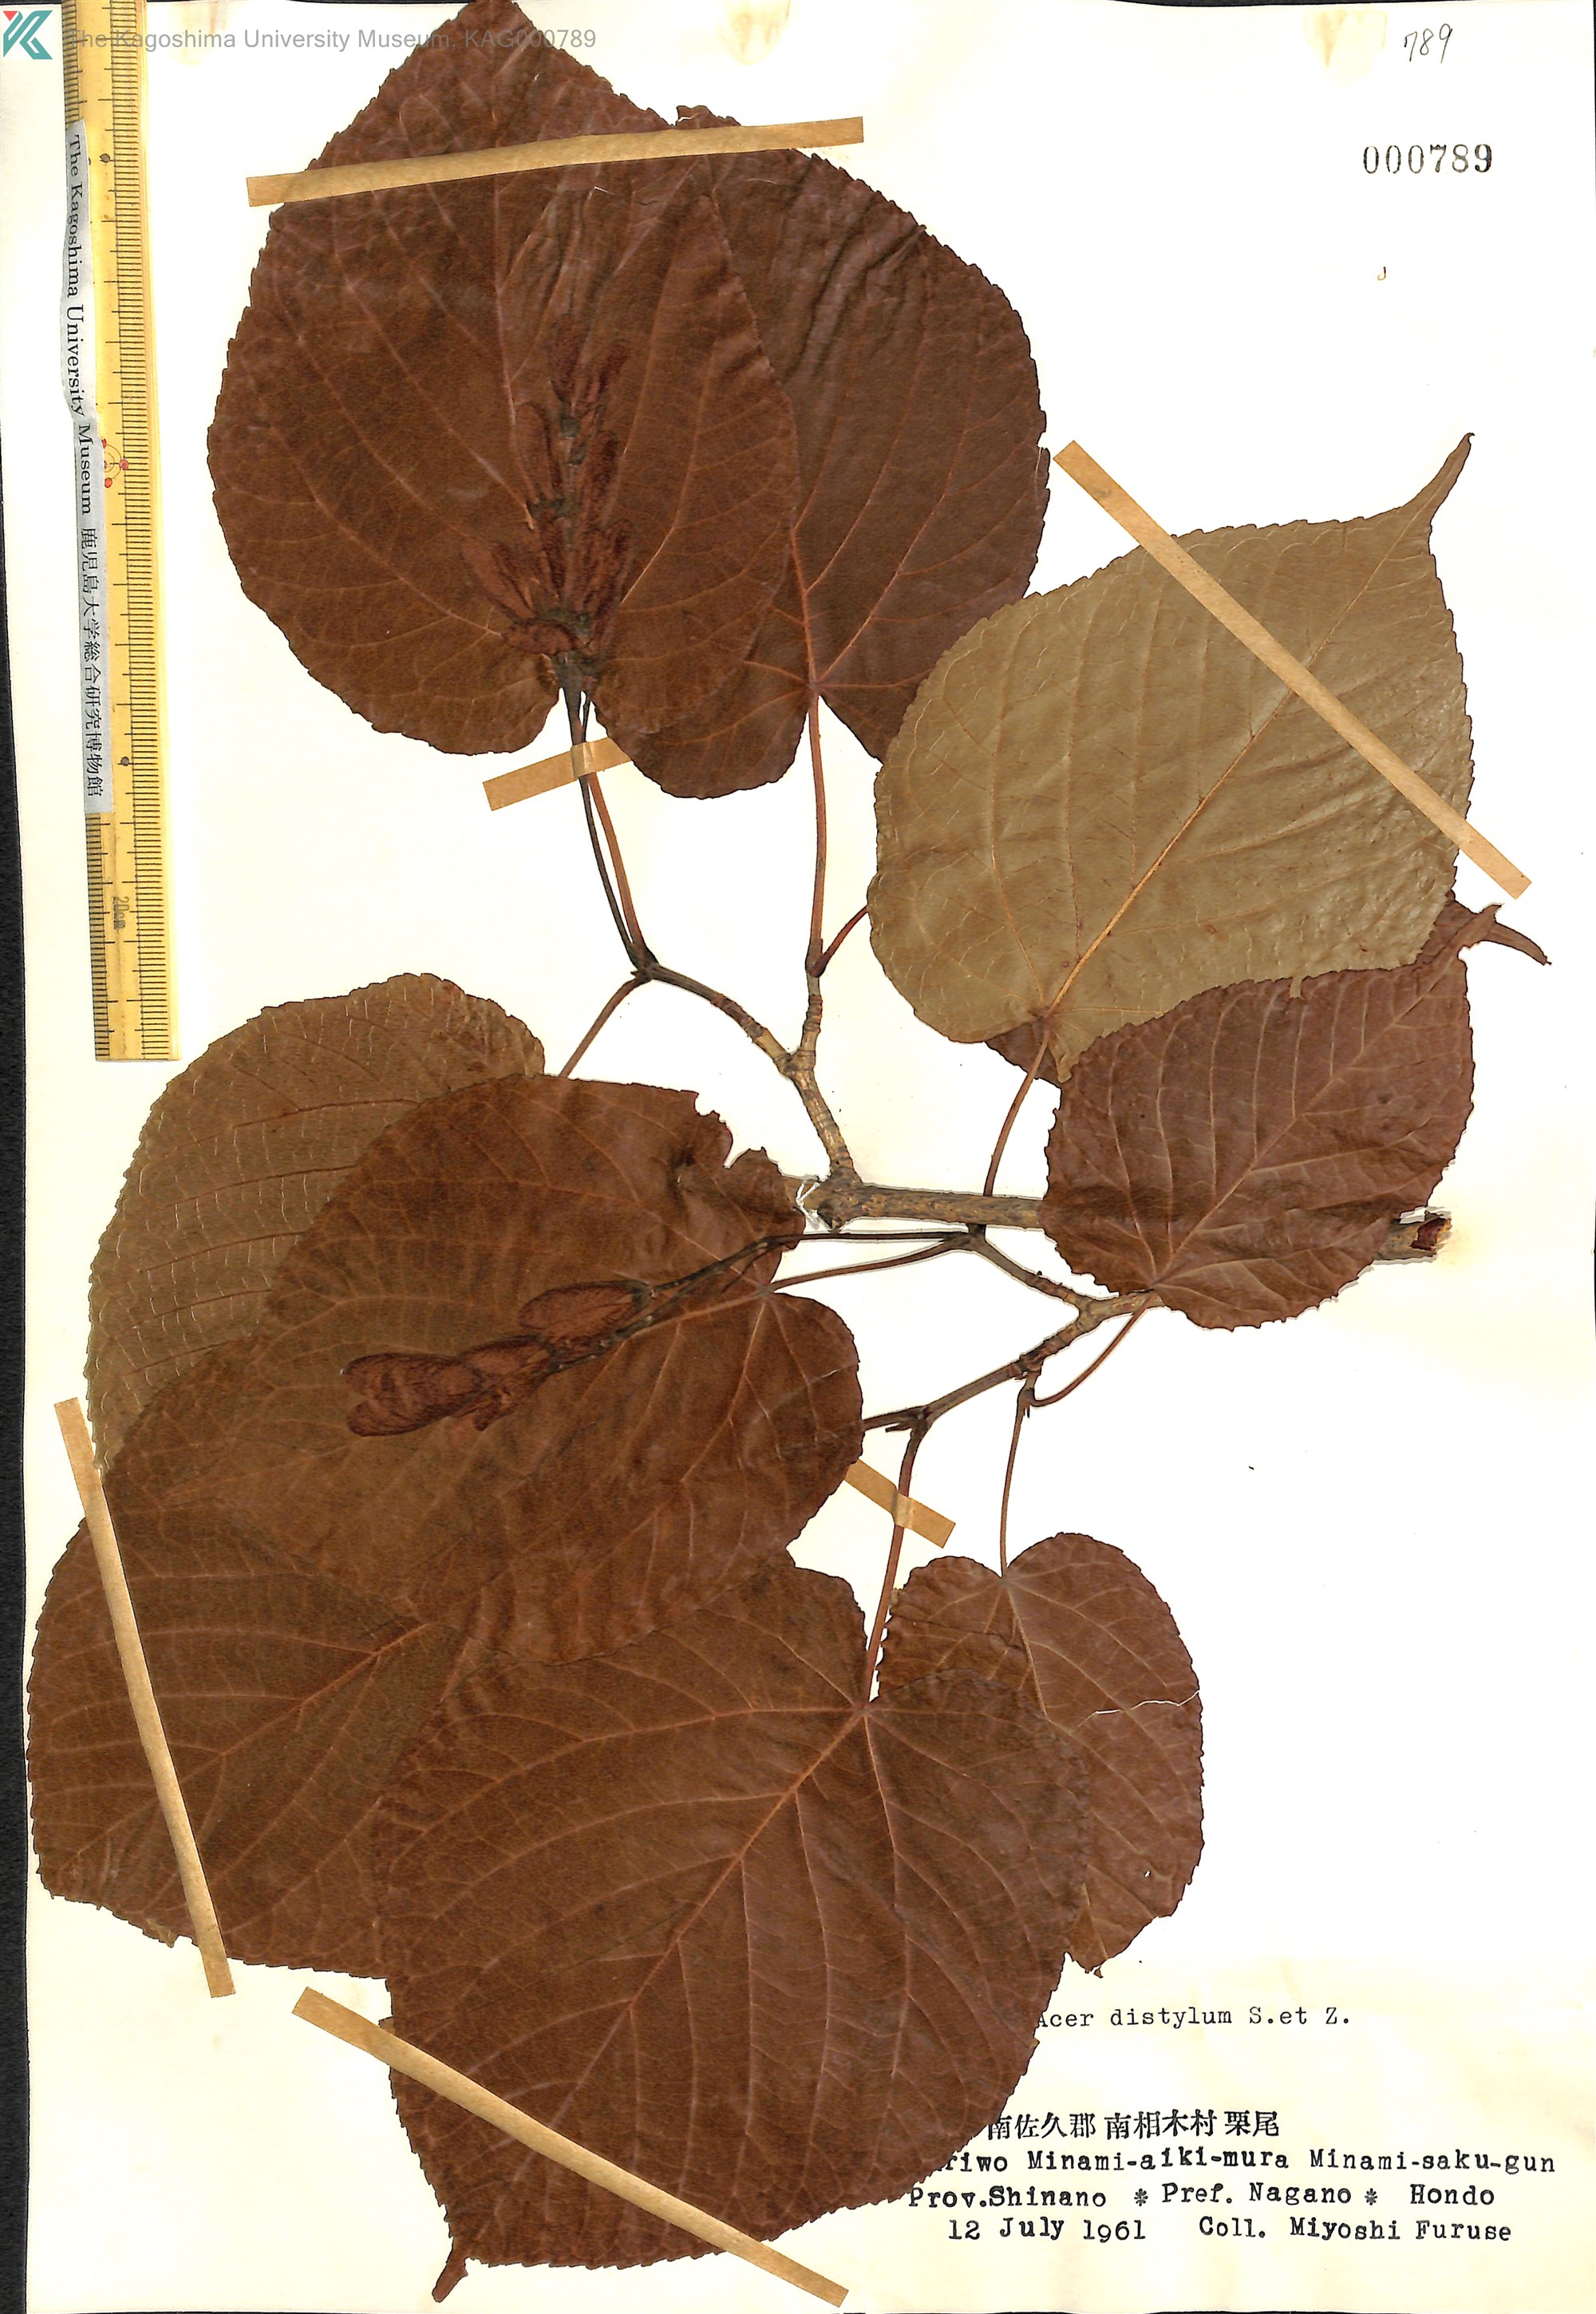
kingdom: Plantae
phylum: Tracheophyta
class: Magnoliopsida
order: Sapindales
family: Sapindaceae
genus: Acer
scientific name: Acer distylum
